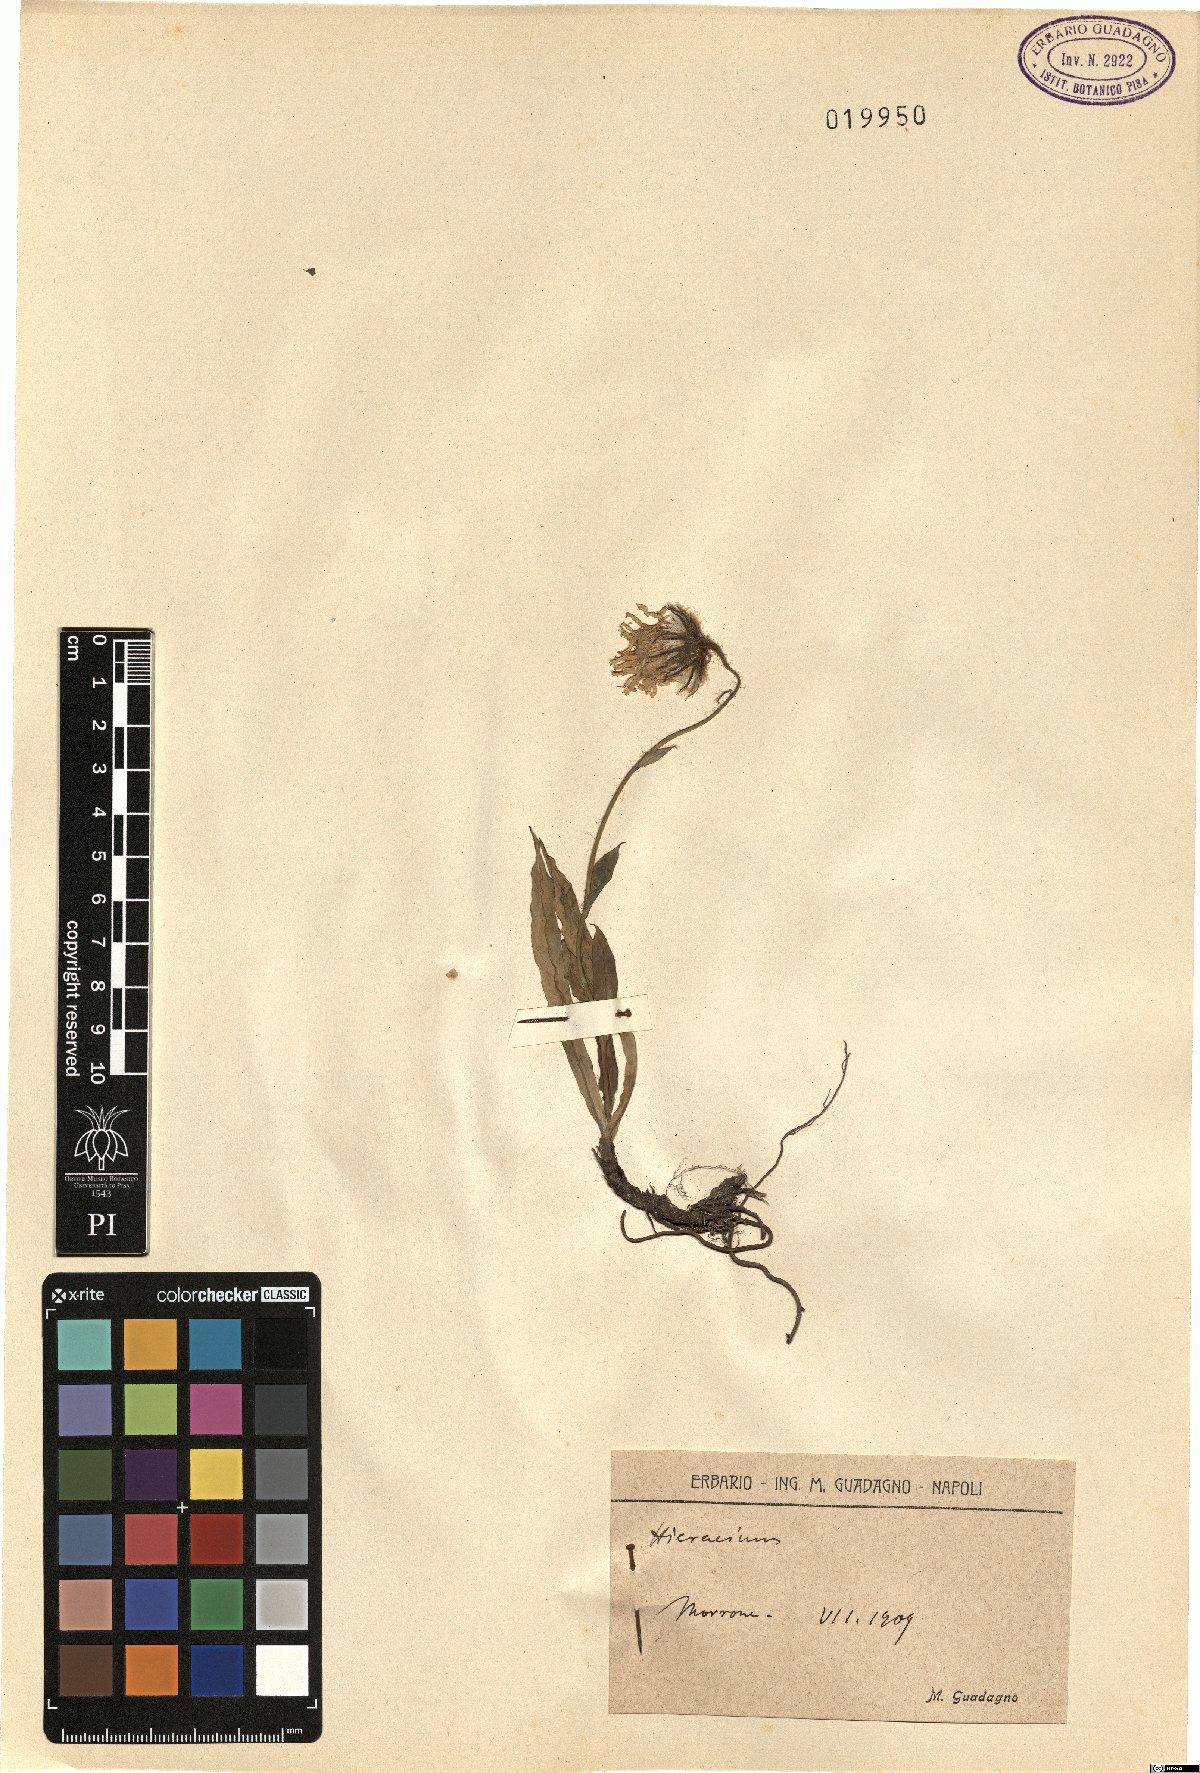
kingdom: Plantae
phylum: Tracheophyta
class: Magnoliopsida
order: Asterales
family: Asteraceae
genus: Hieracium
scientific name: Hieracium
